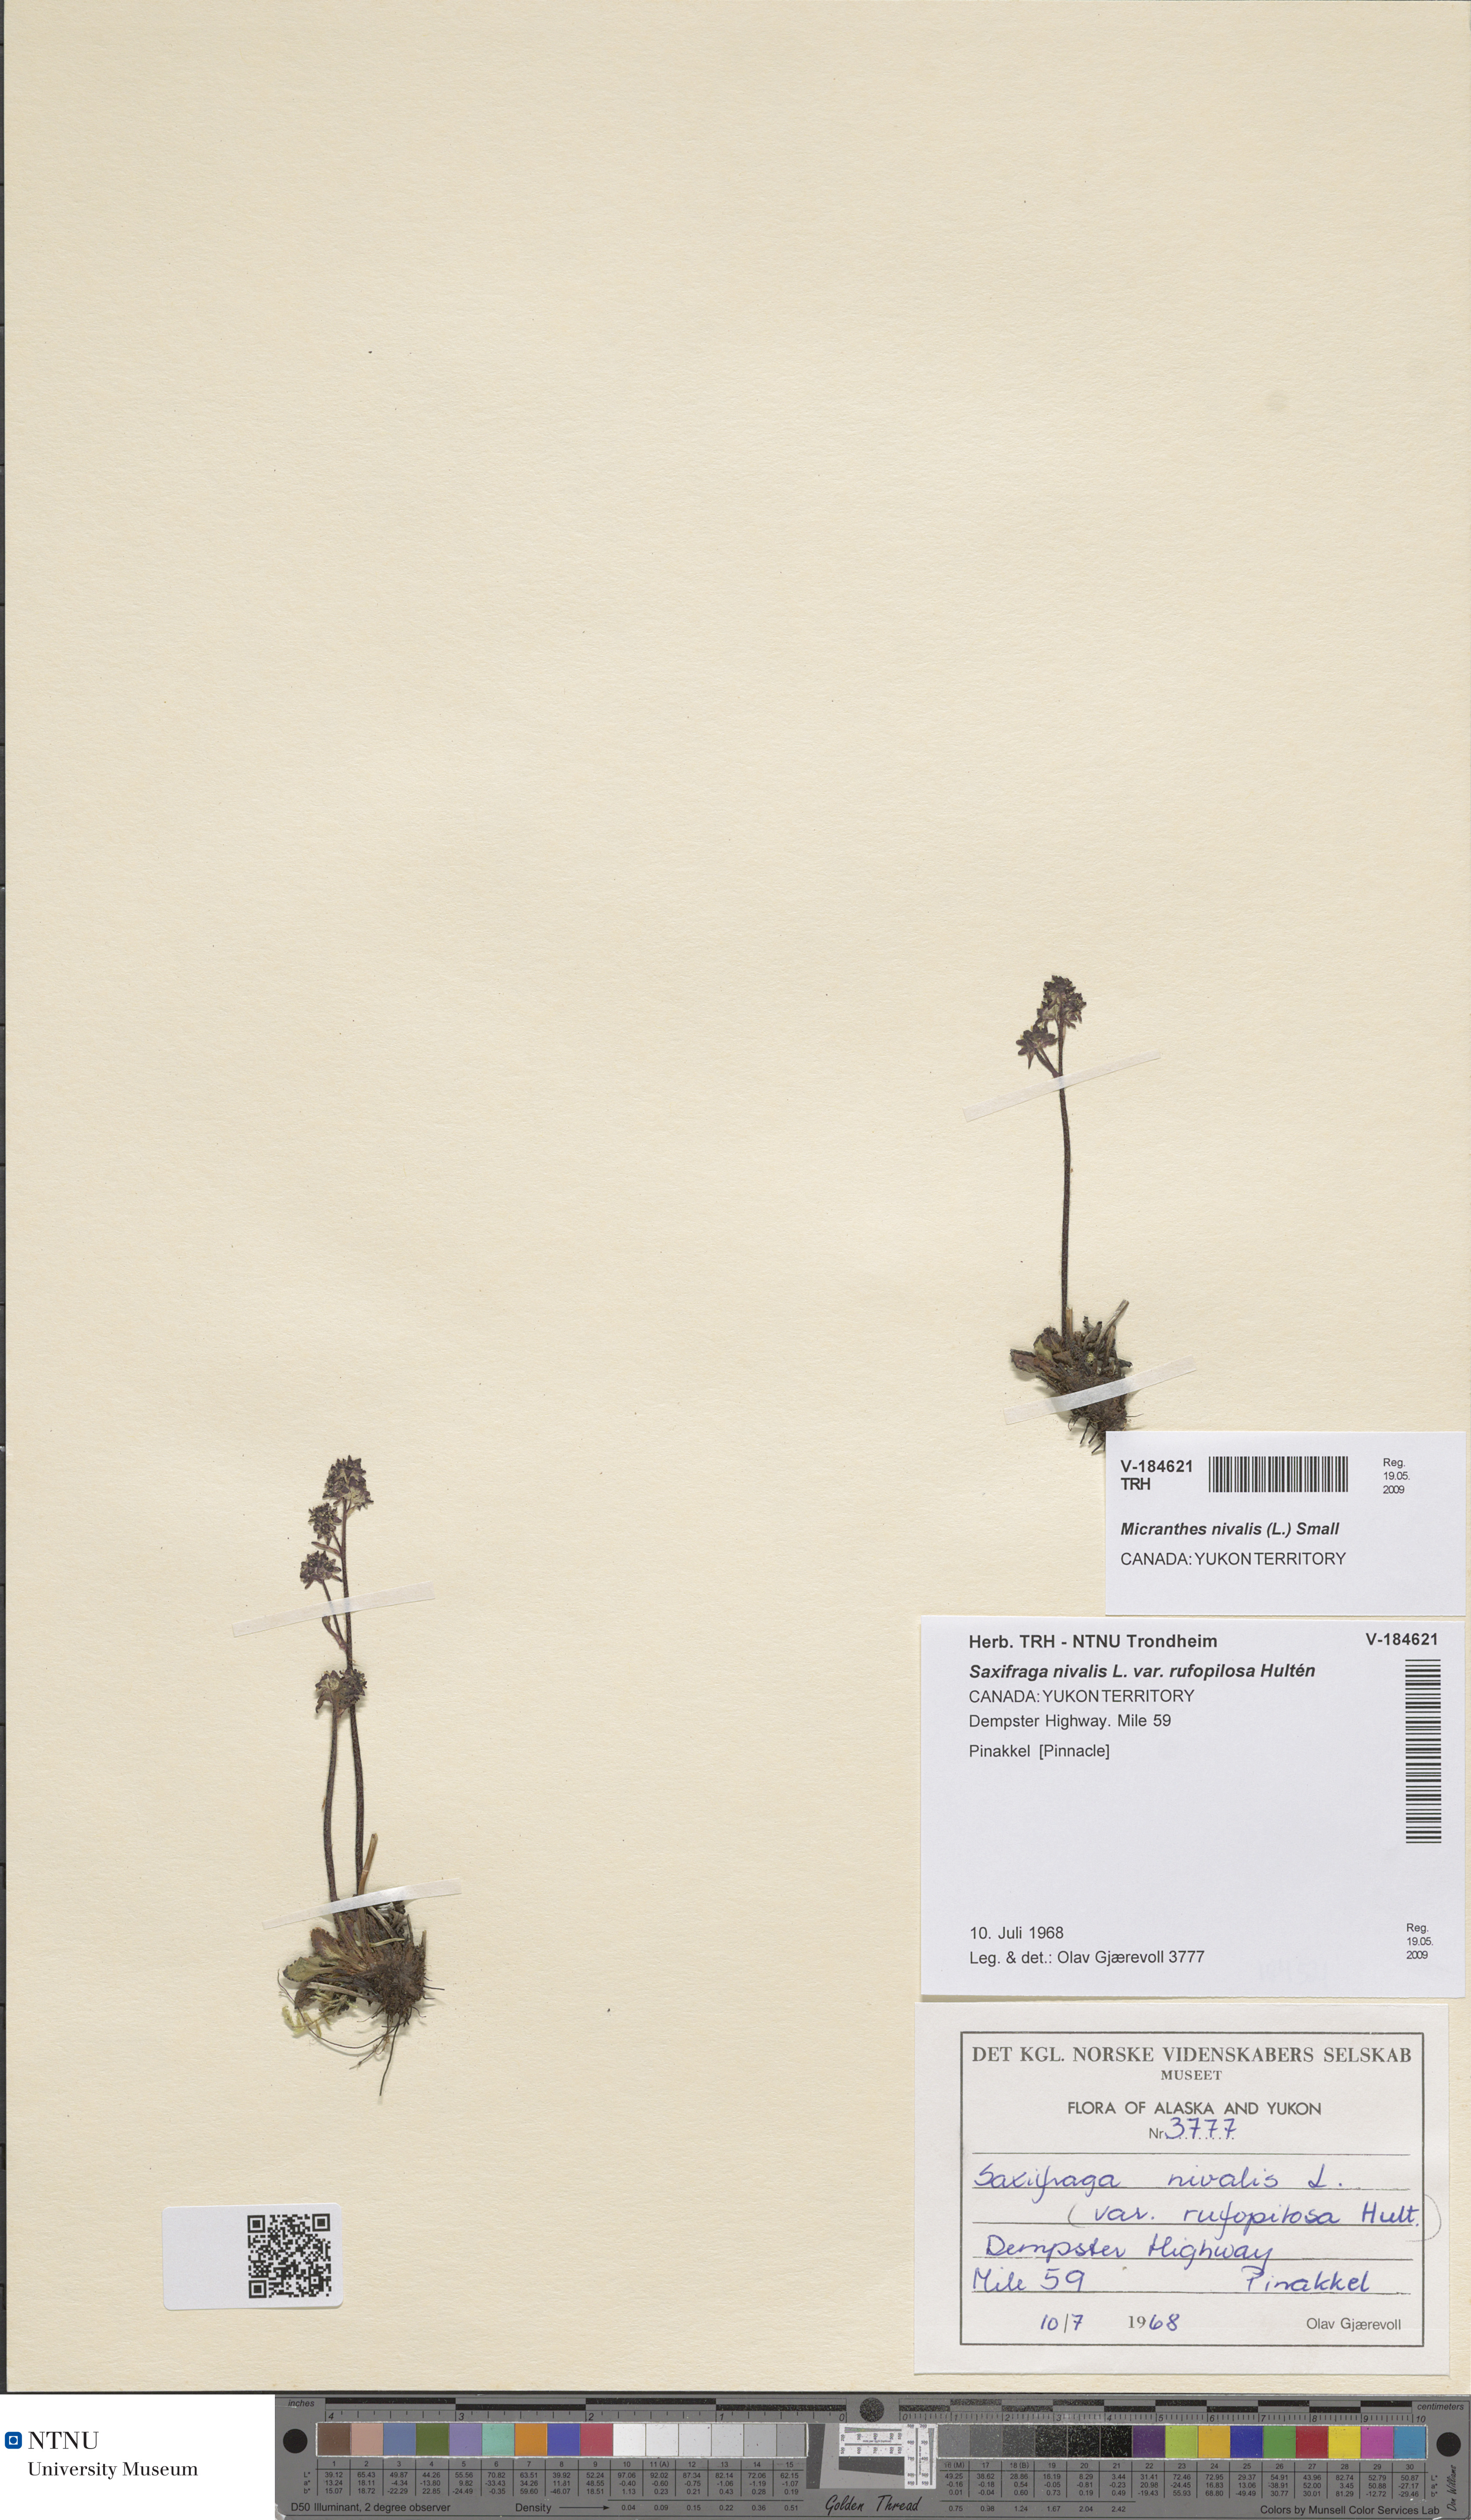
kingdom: Plantae
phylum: Tracheophyta
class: Magnoliopsida
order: Saxifragales
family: Saxifragaceae
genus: Micranthes
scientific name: Micranthes rufopilosa
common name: Red-haired saxifrage
